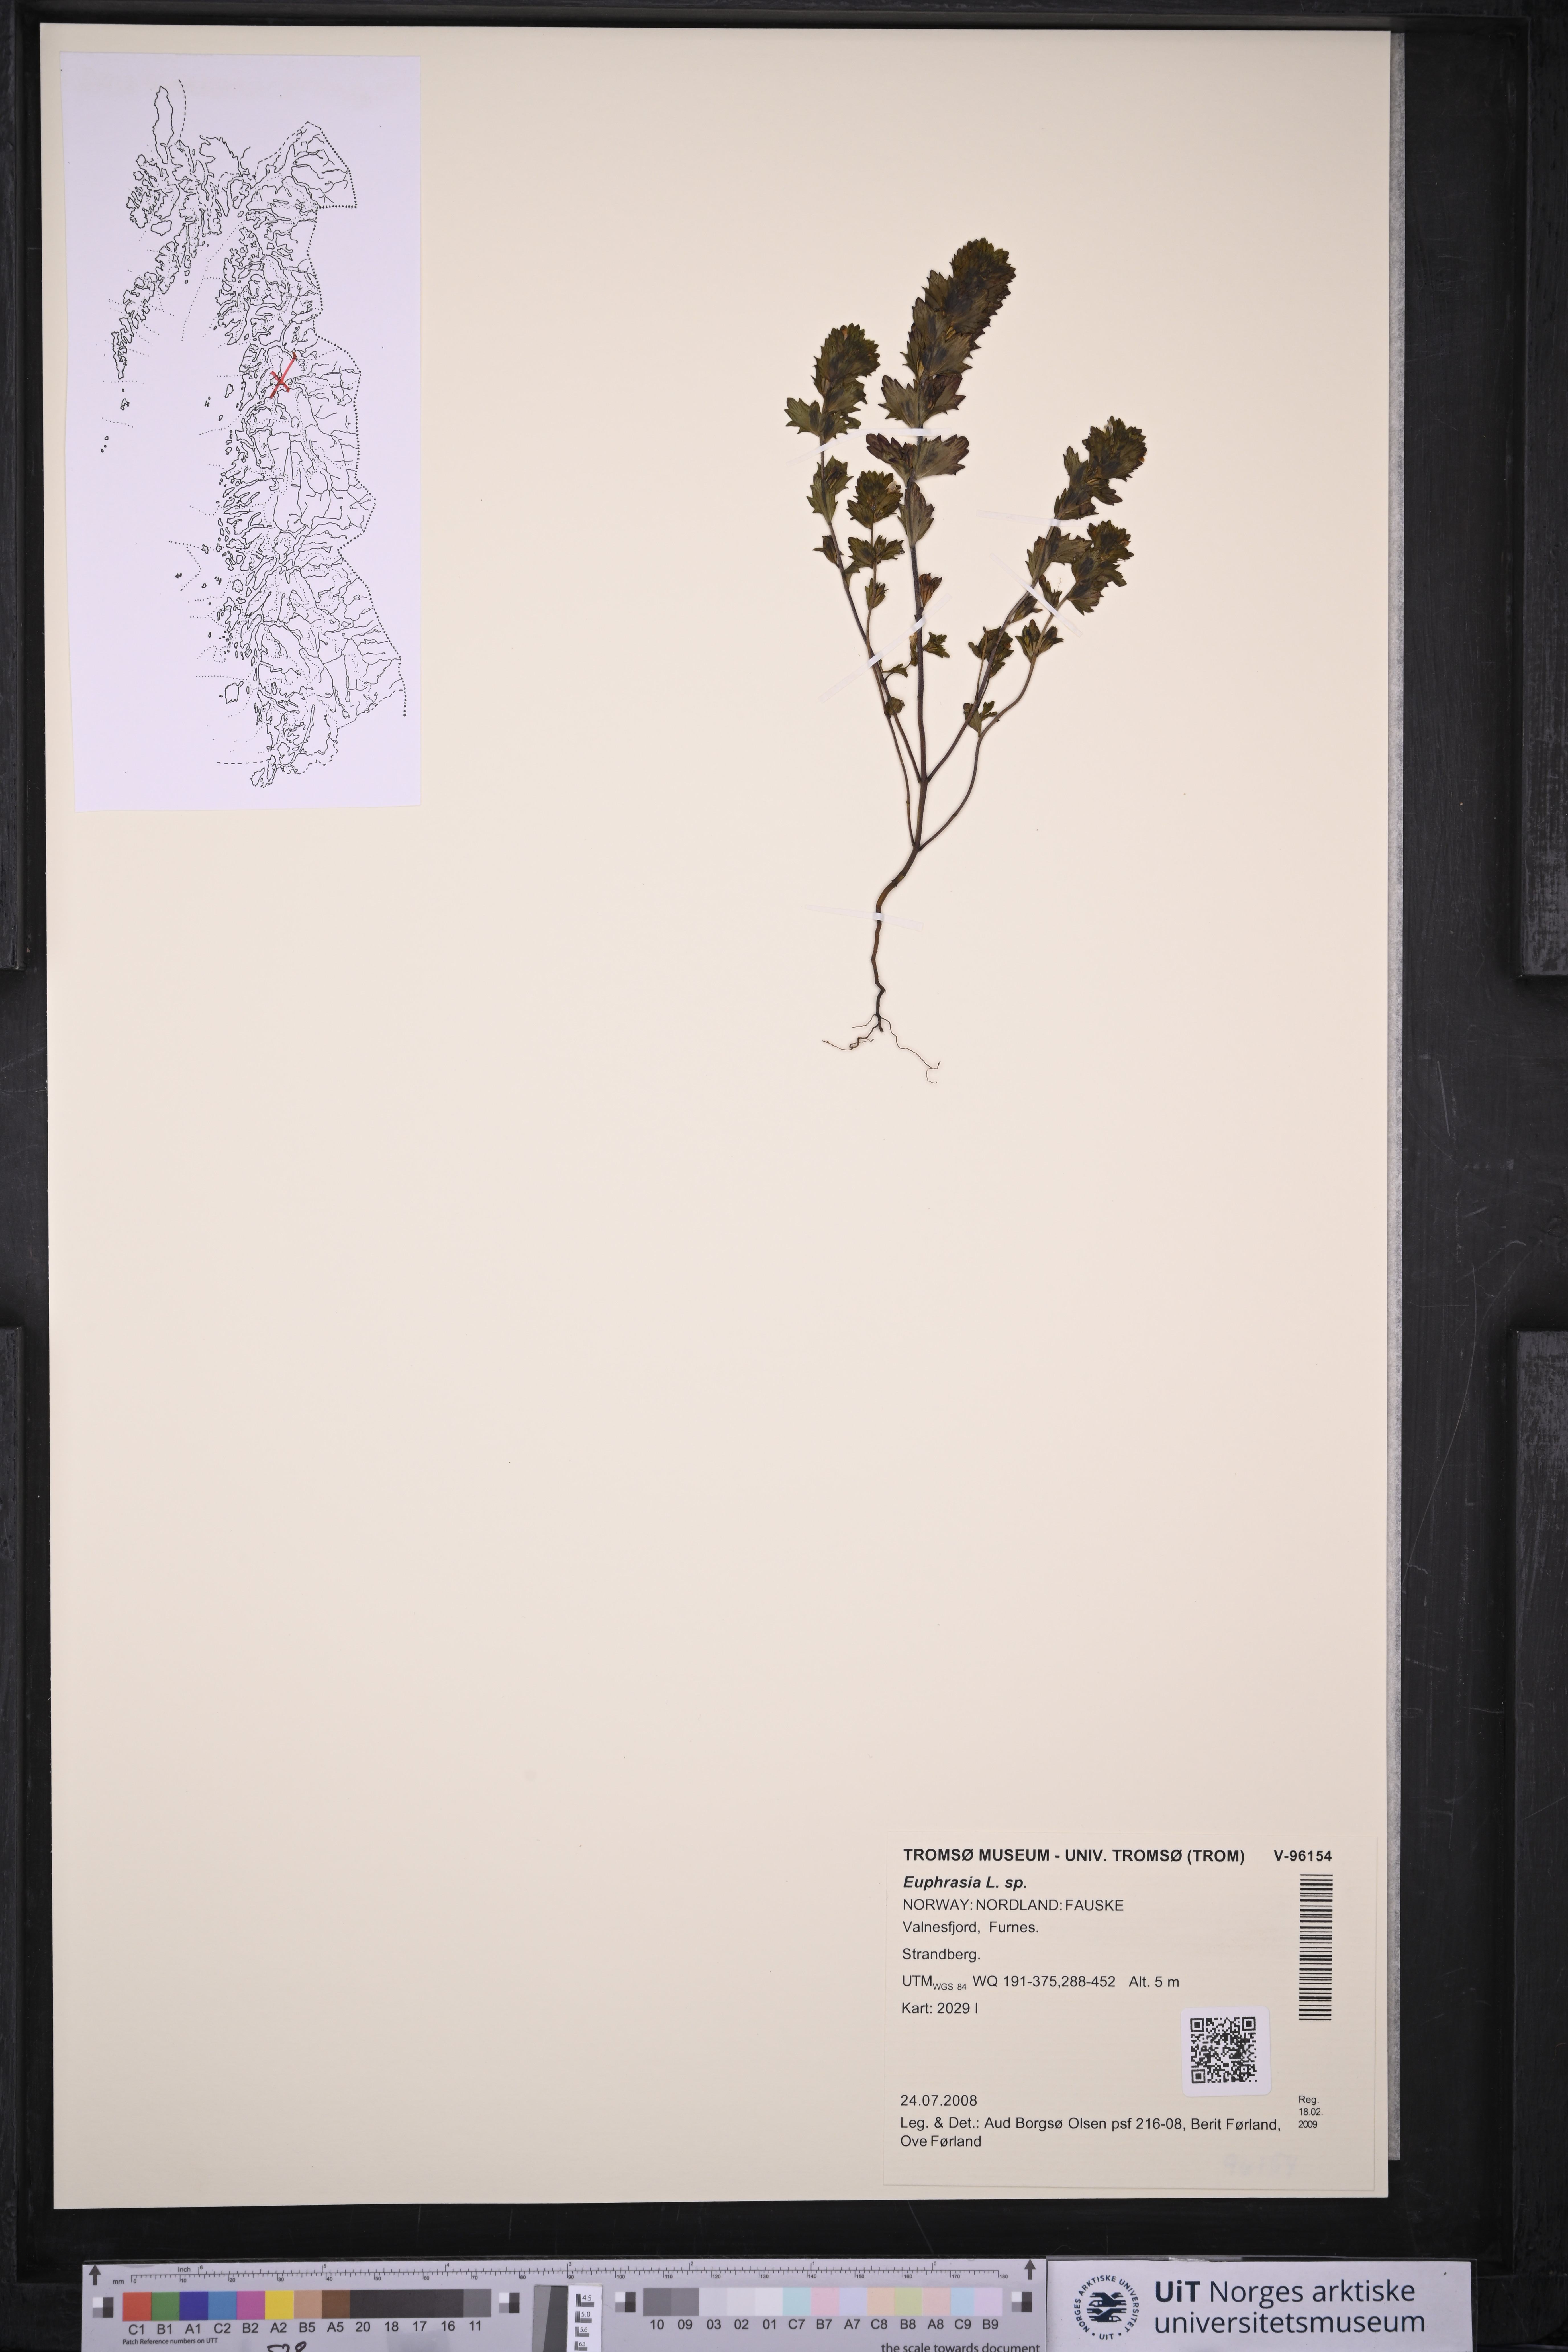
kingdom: Plantae
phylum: Tracheophyta
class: Magnoliopsida
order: Lamiales
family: Orobanchaceae
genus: Euphrasia
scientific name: Euphrasia
